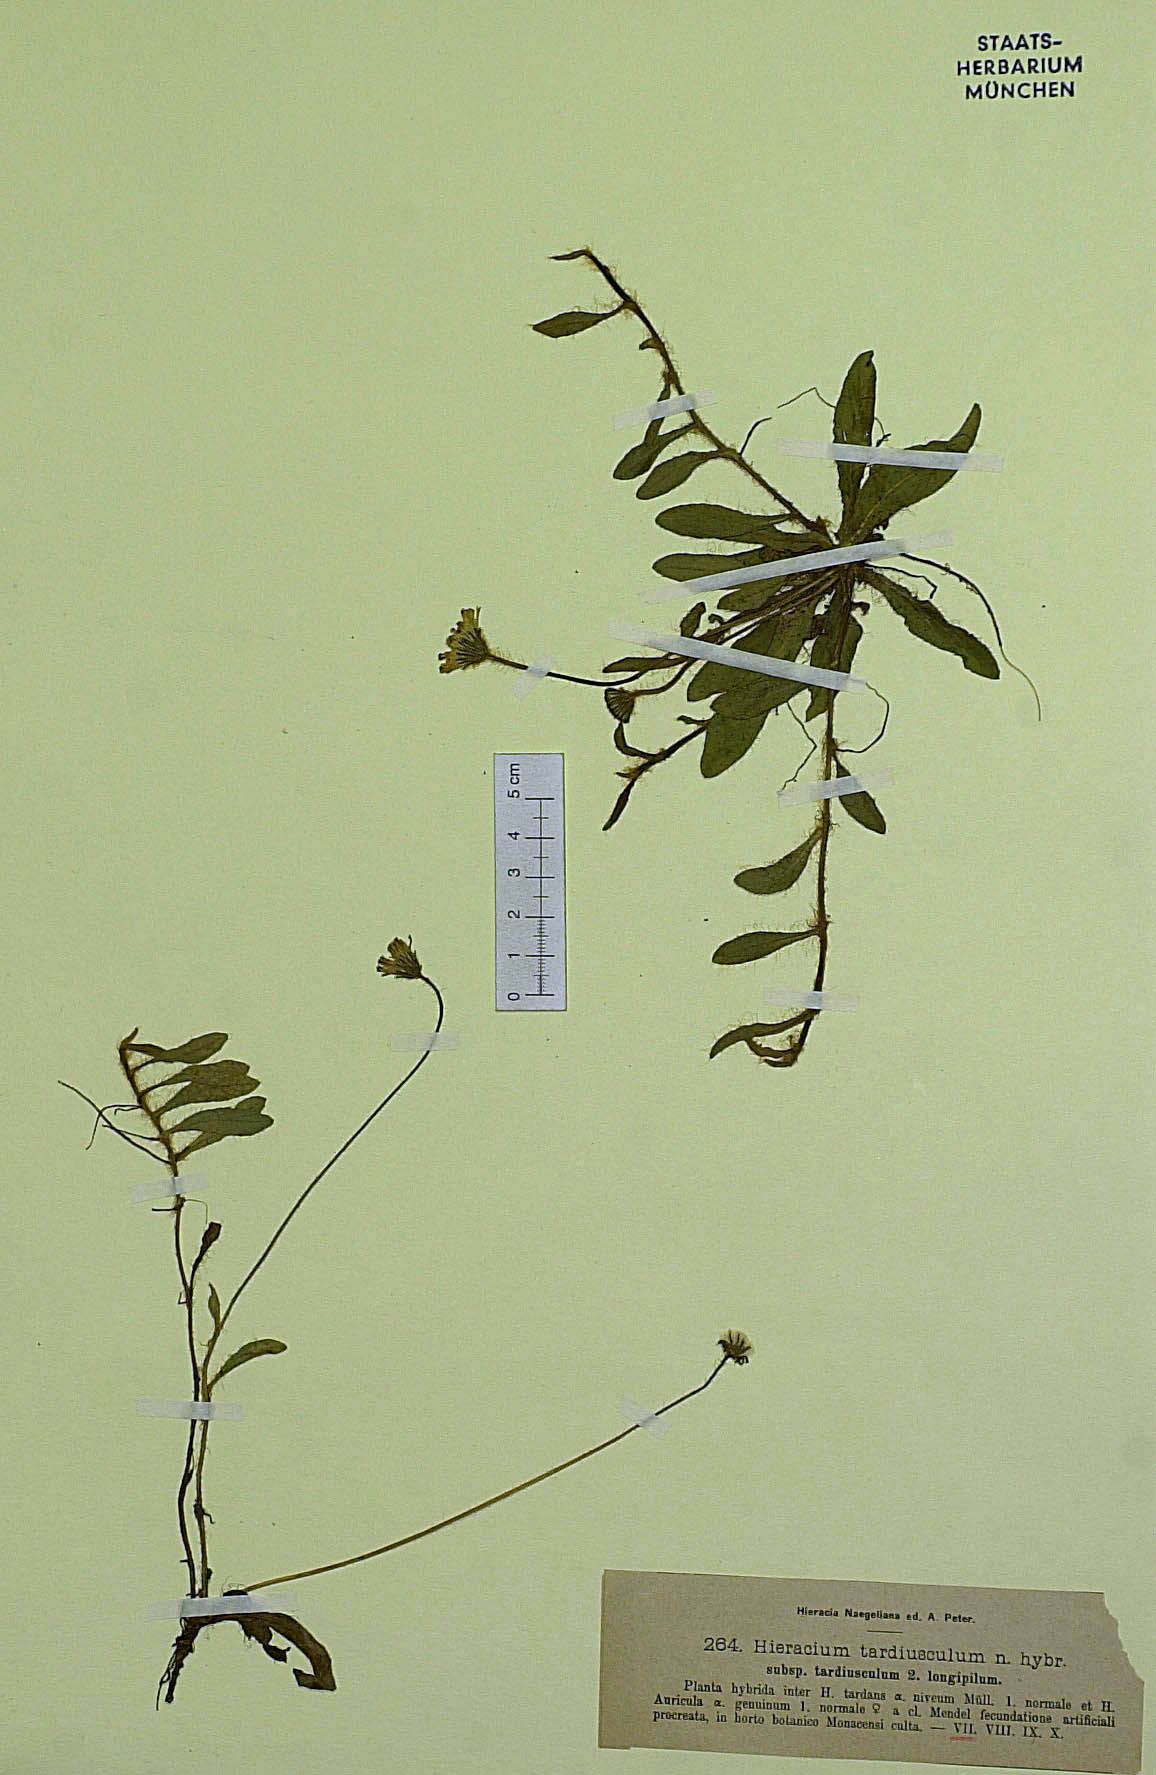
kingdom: Plantae
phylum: Tracheophyta
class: Magnoliopsida
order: Asterales
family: Asteraceae
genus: Pilosella
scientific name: Pilosella tardiuscula
